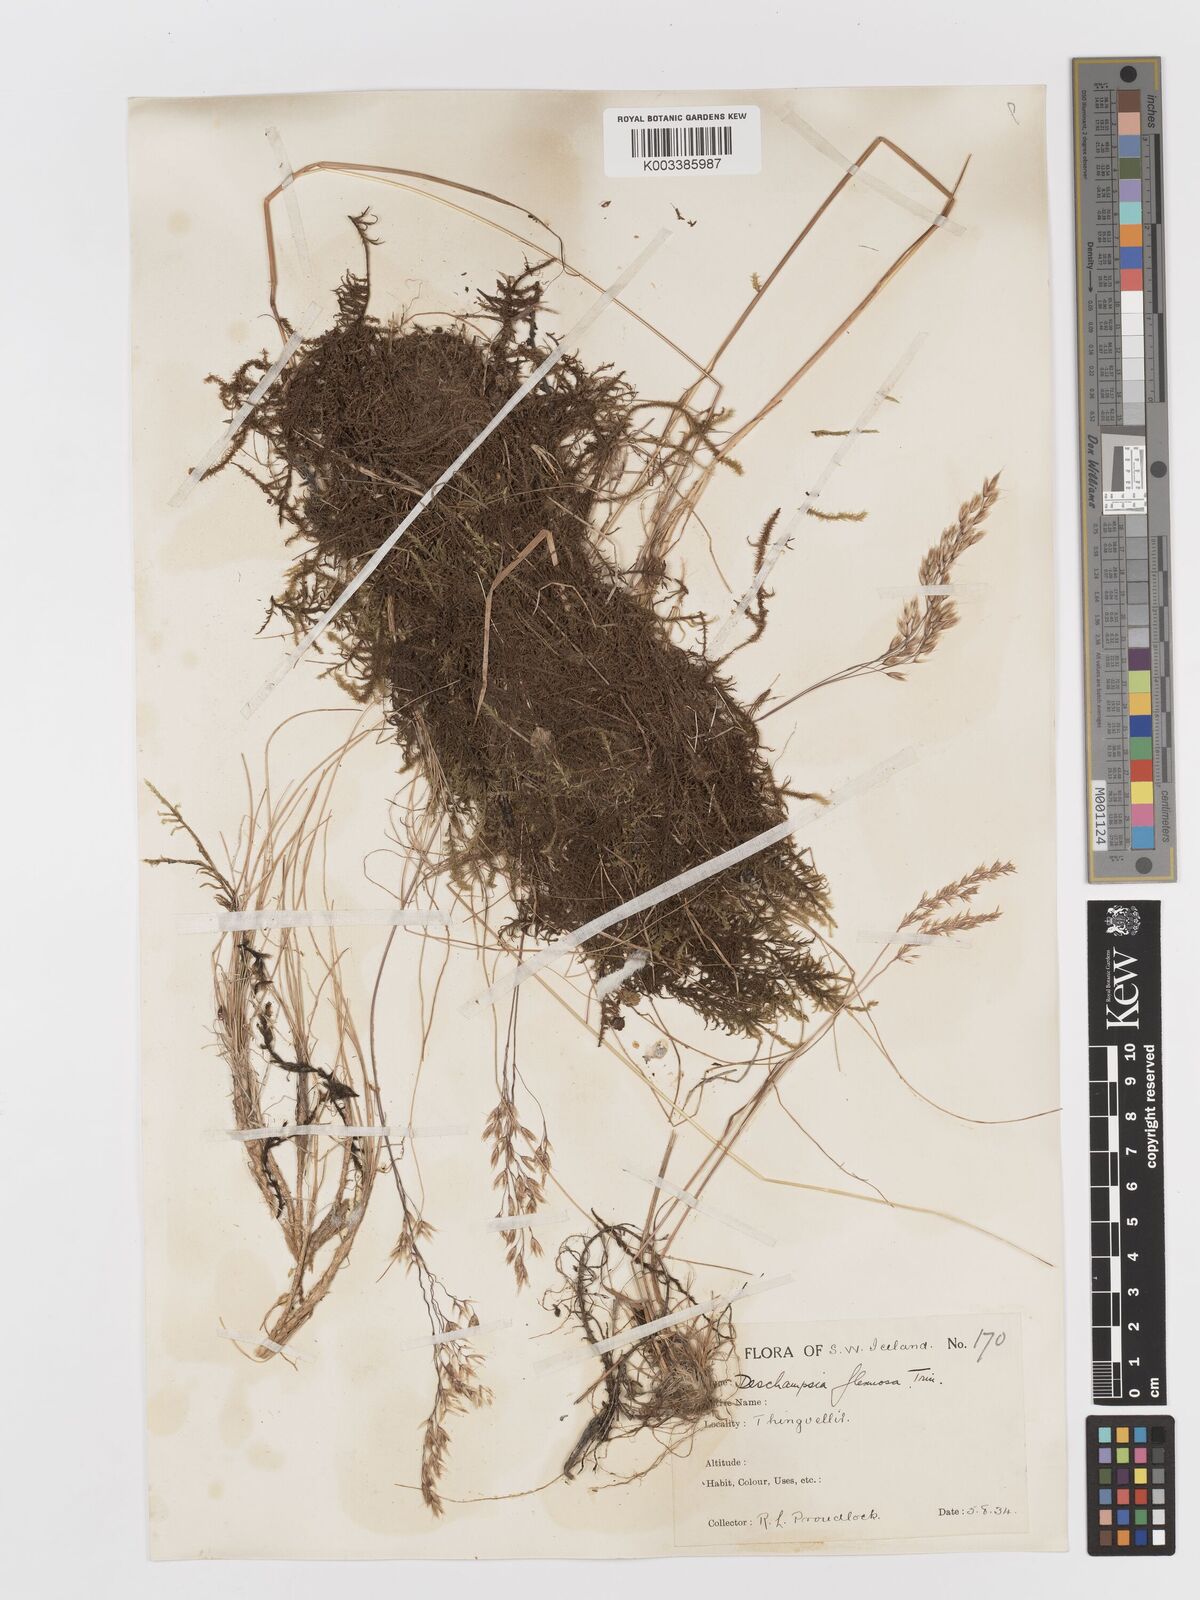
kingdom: Plantae
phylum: Tracheophyta
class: Liliopsida
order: Poales
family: Poaceae
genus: Avenella
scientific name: Avenella flexuosa
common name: Wavy hairgrass
